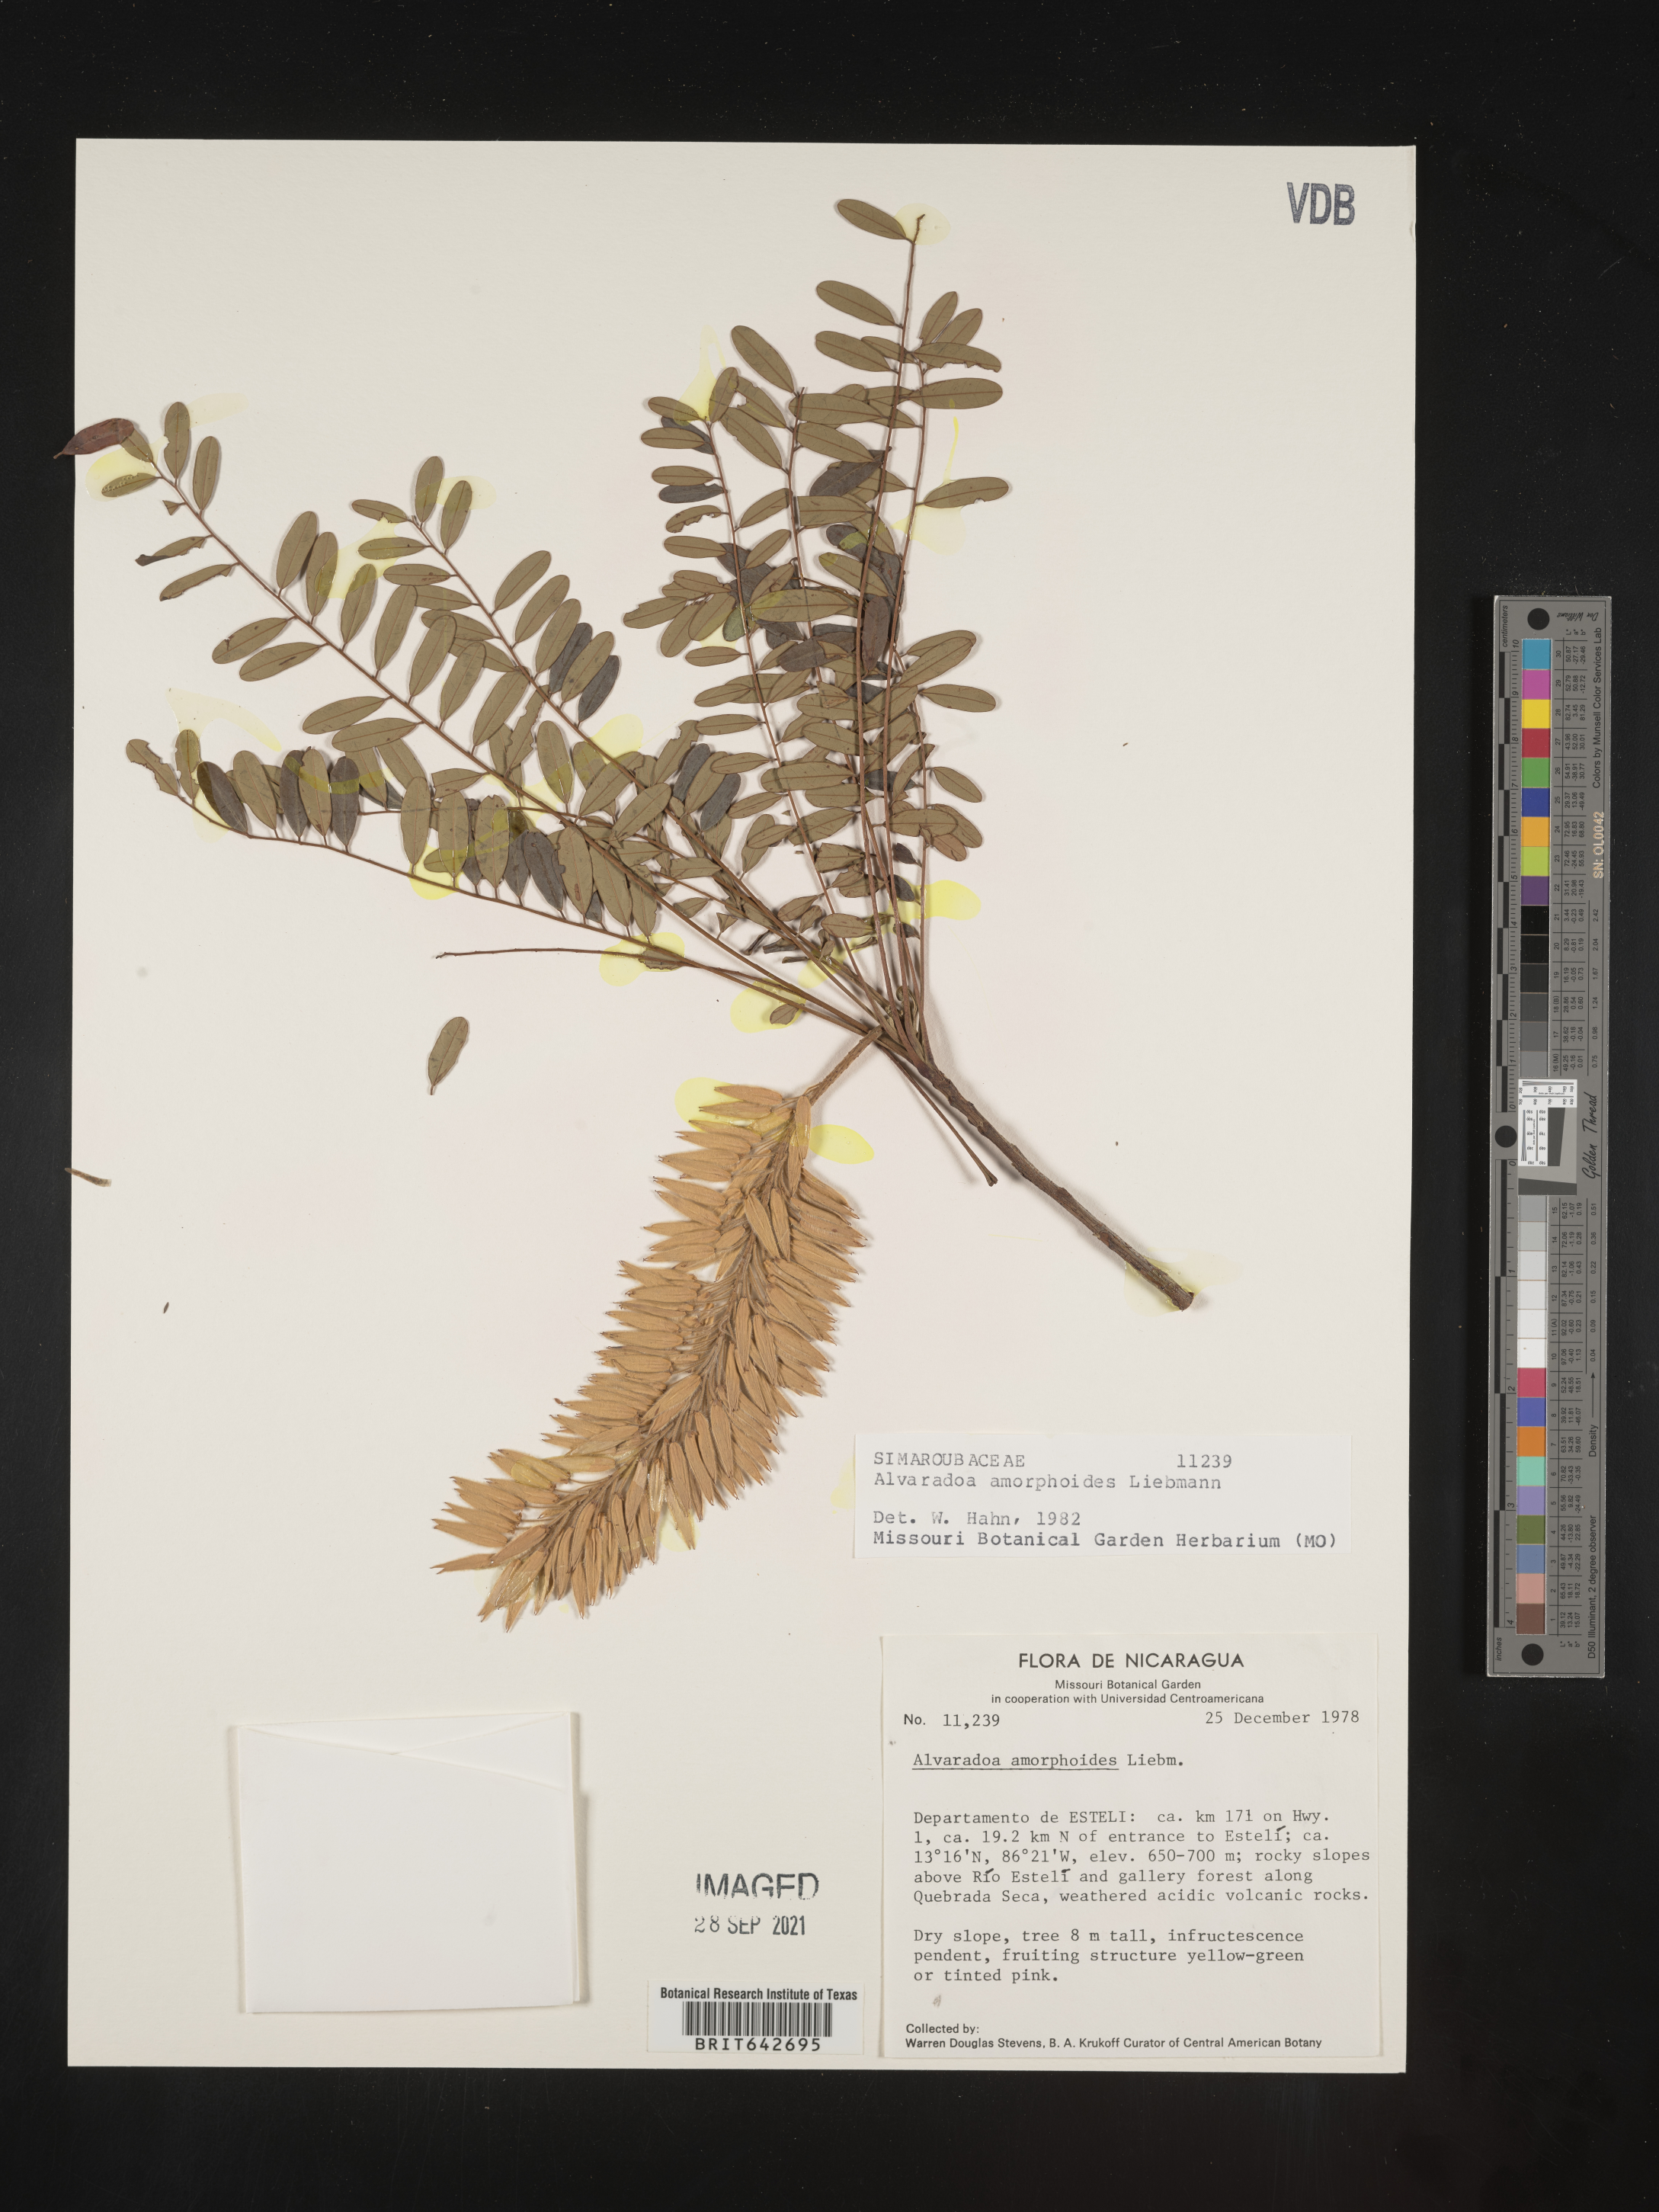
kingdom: Plantae
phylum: Tracheophyta
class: Magnoliopsida
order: Picramniales
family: Picramniaceae
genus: Alvaradoa
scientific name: Alvaradoa
